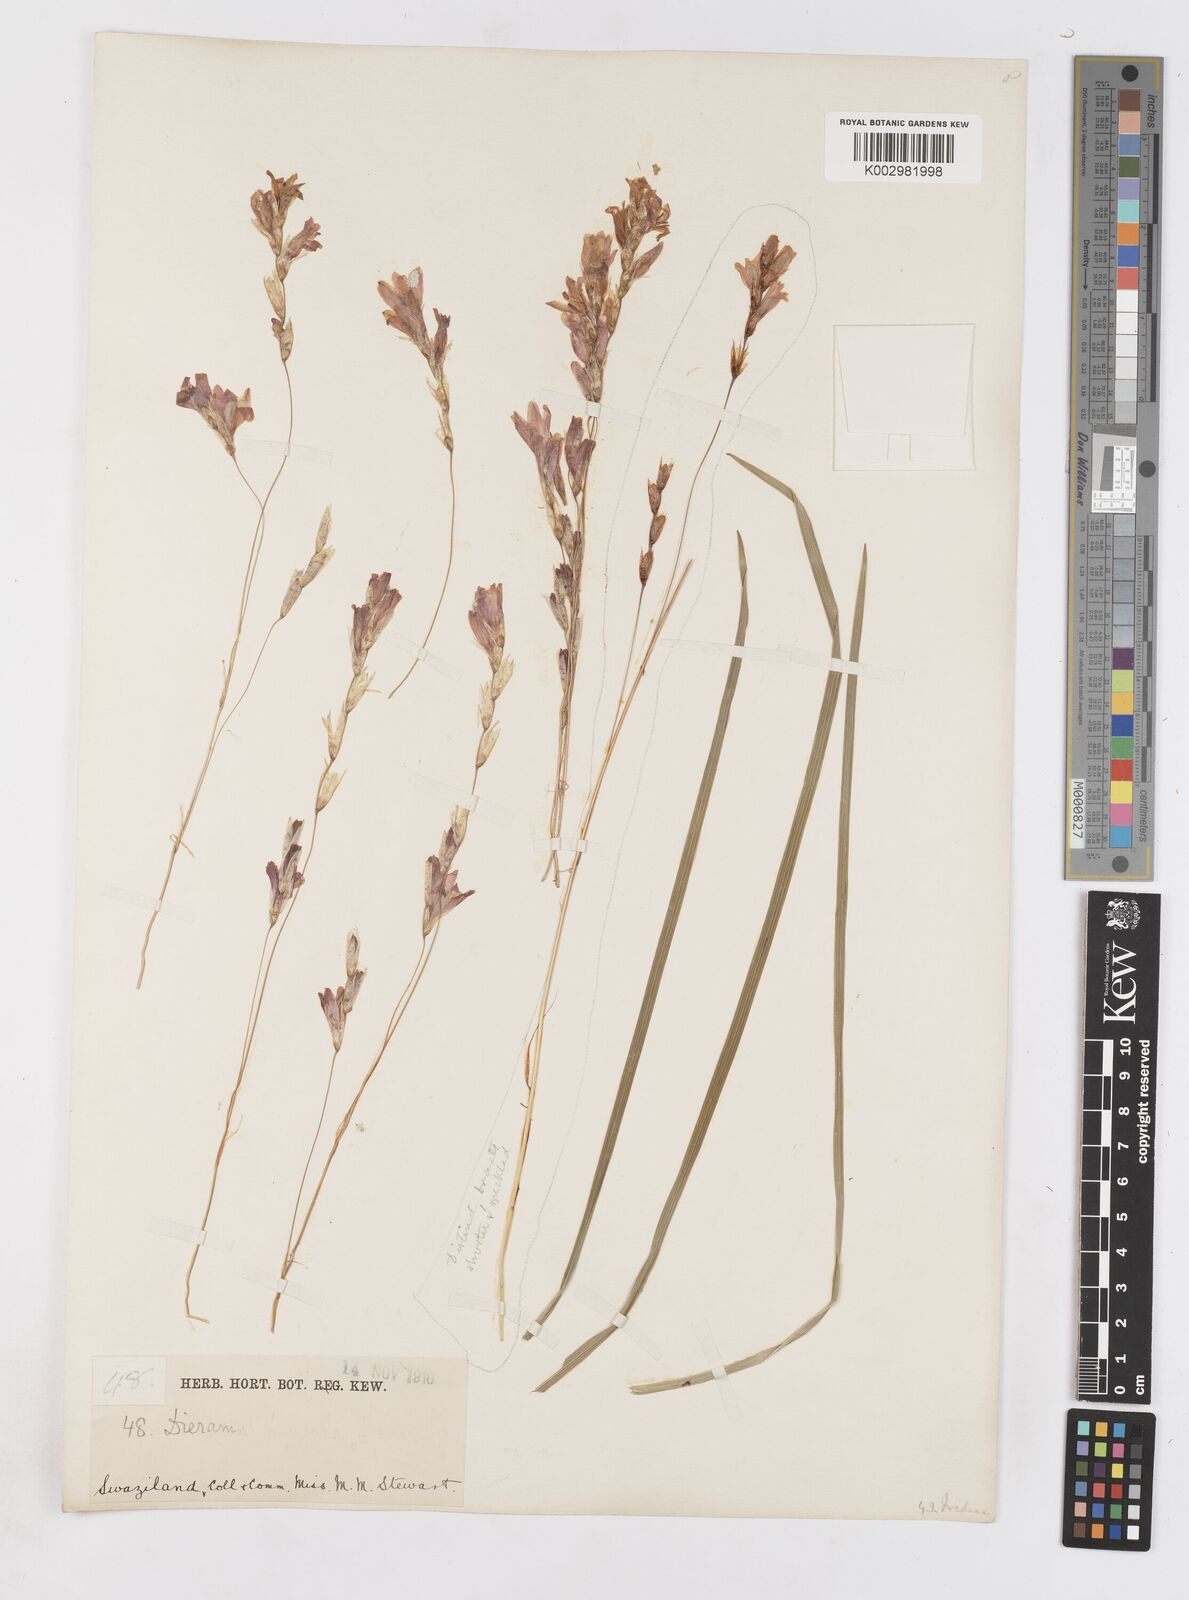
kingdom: Plantae
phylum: Tracheophyta
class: Liliopsida
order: Asparagales
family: Iridaceae
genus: Dierama
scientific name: Dierama mossii
